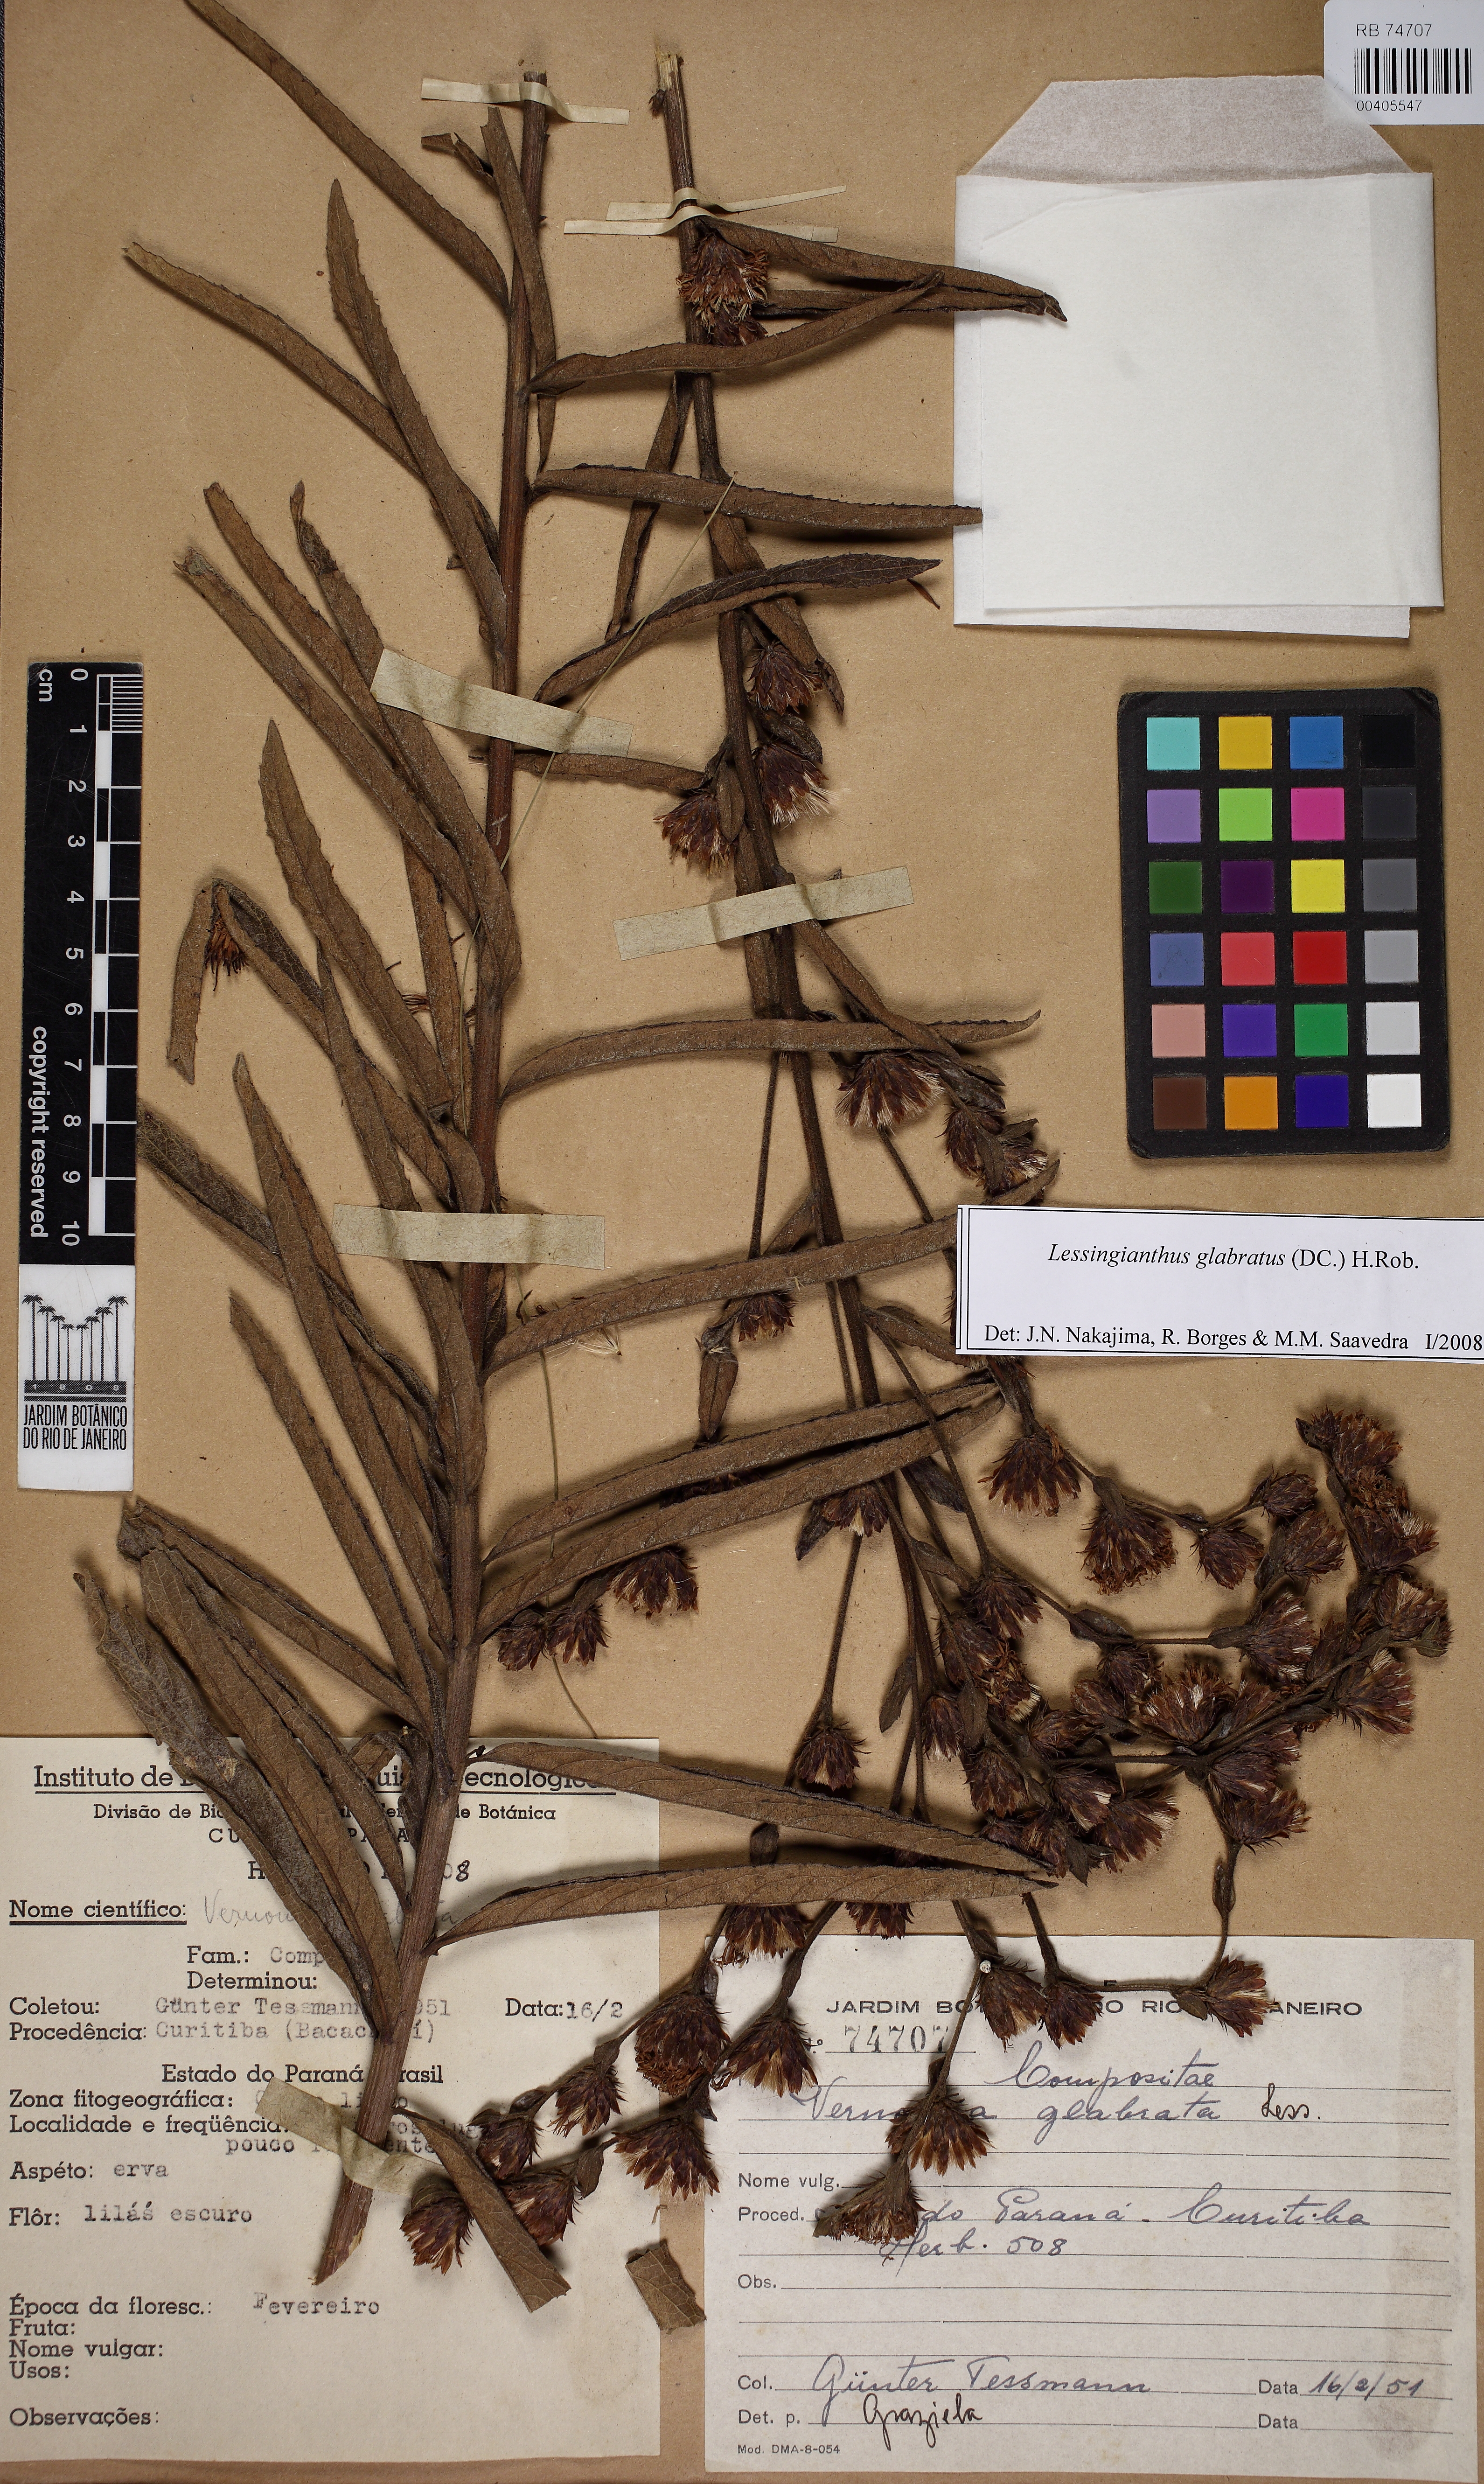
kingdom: Plantae
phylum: Tracheophyta
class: Magnoliopsida
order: Asterales
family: Asteraceae
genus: Lessingianthus
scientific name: Lessingianthus glabratus
